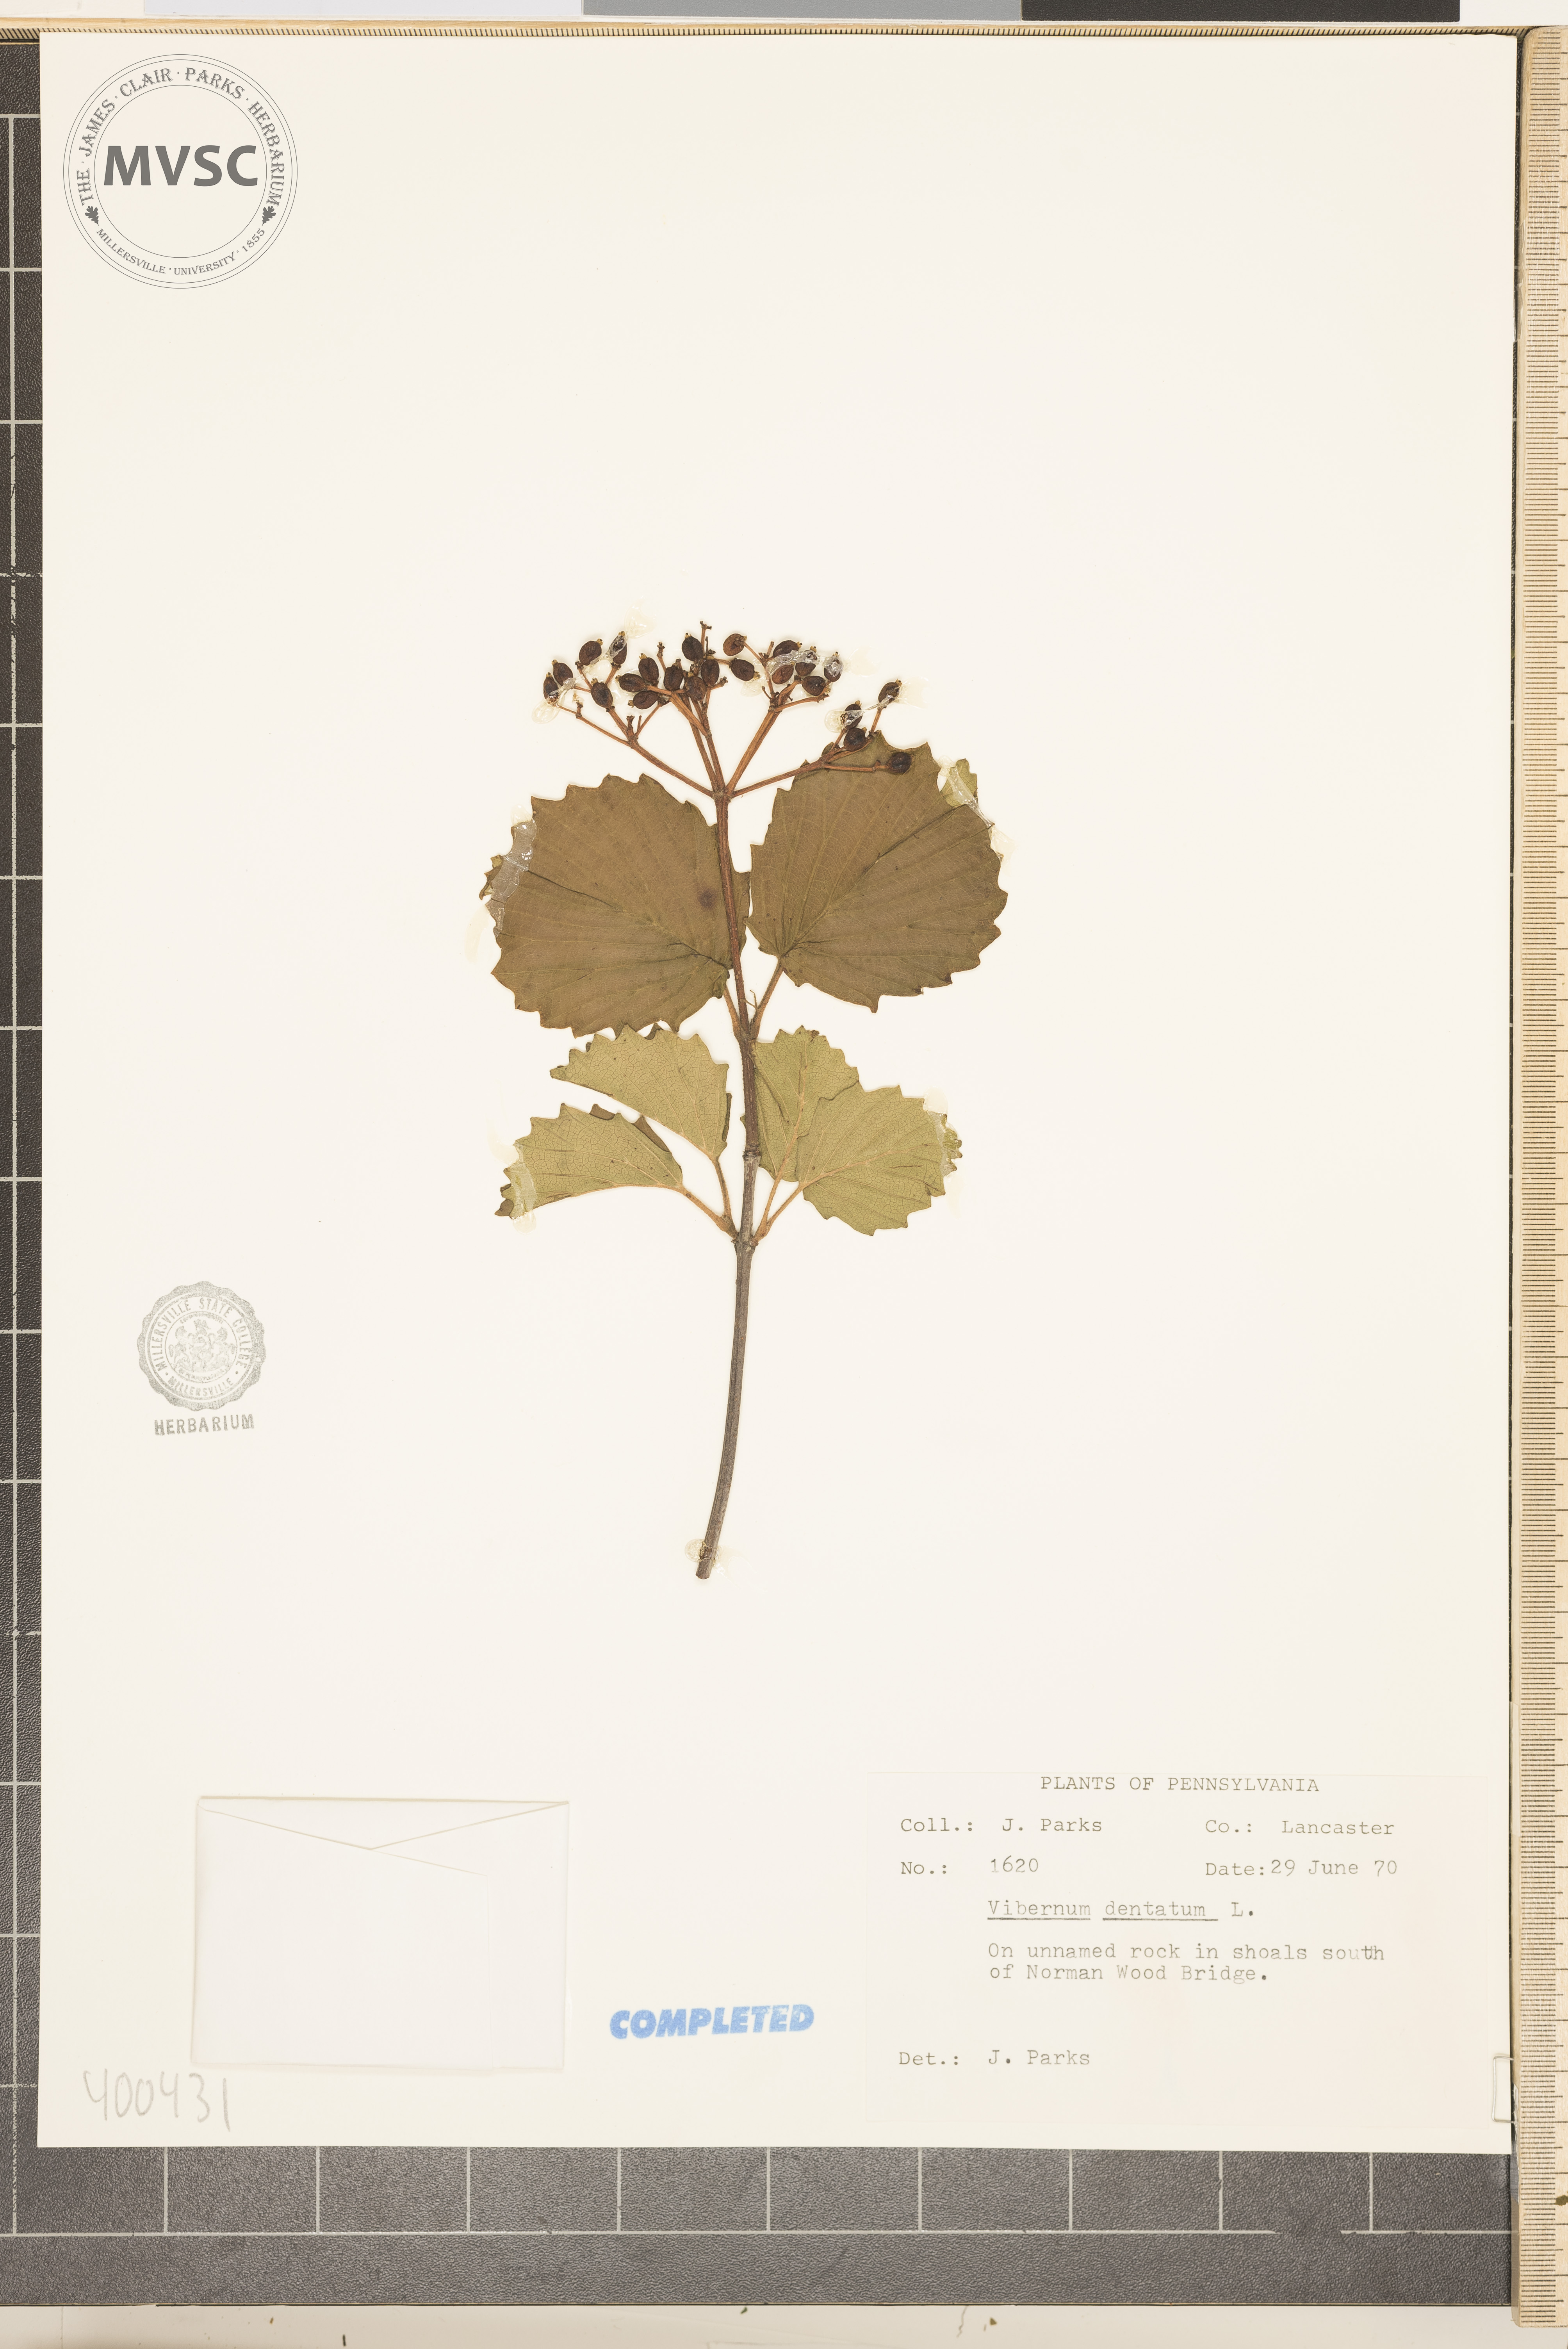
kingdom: Plantae
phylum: Tracheophyta
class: Magnoliopsida
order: Dipsacales
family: Viburnaceae
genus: Viburnum
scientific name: Viburnum dentatum
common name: viburnum
